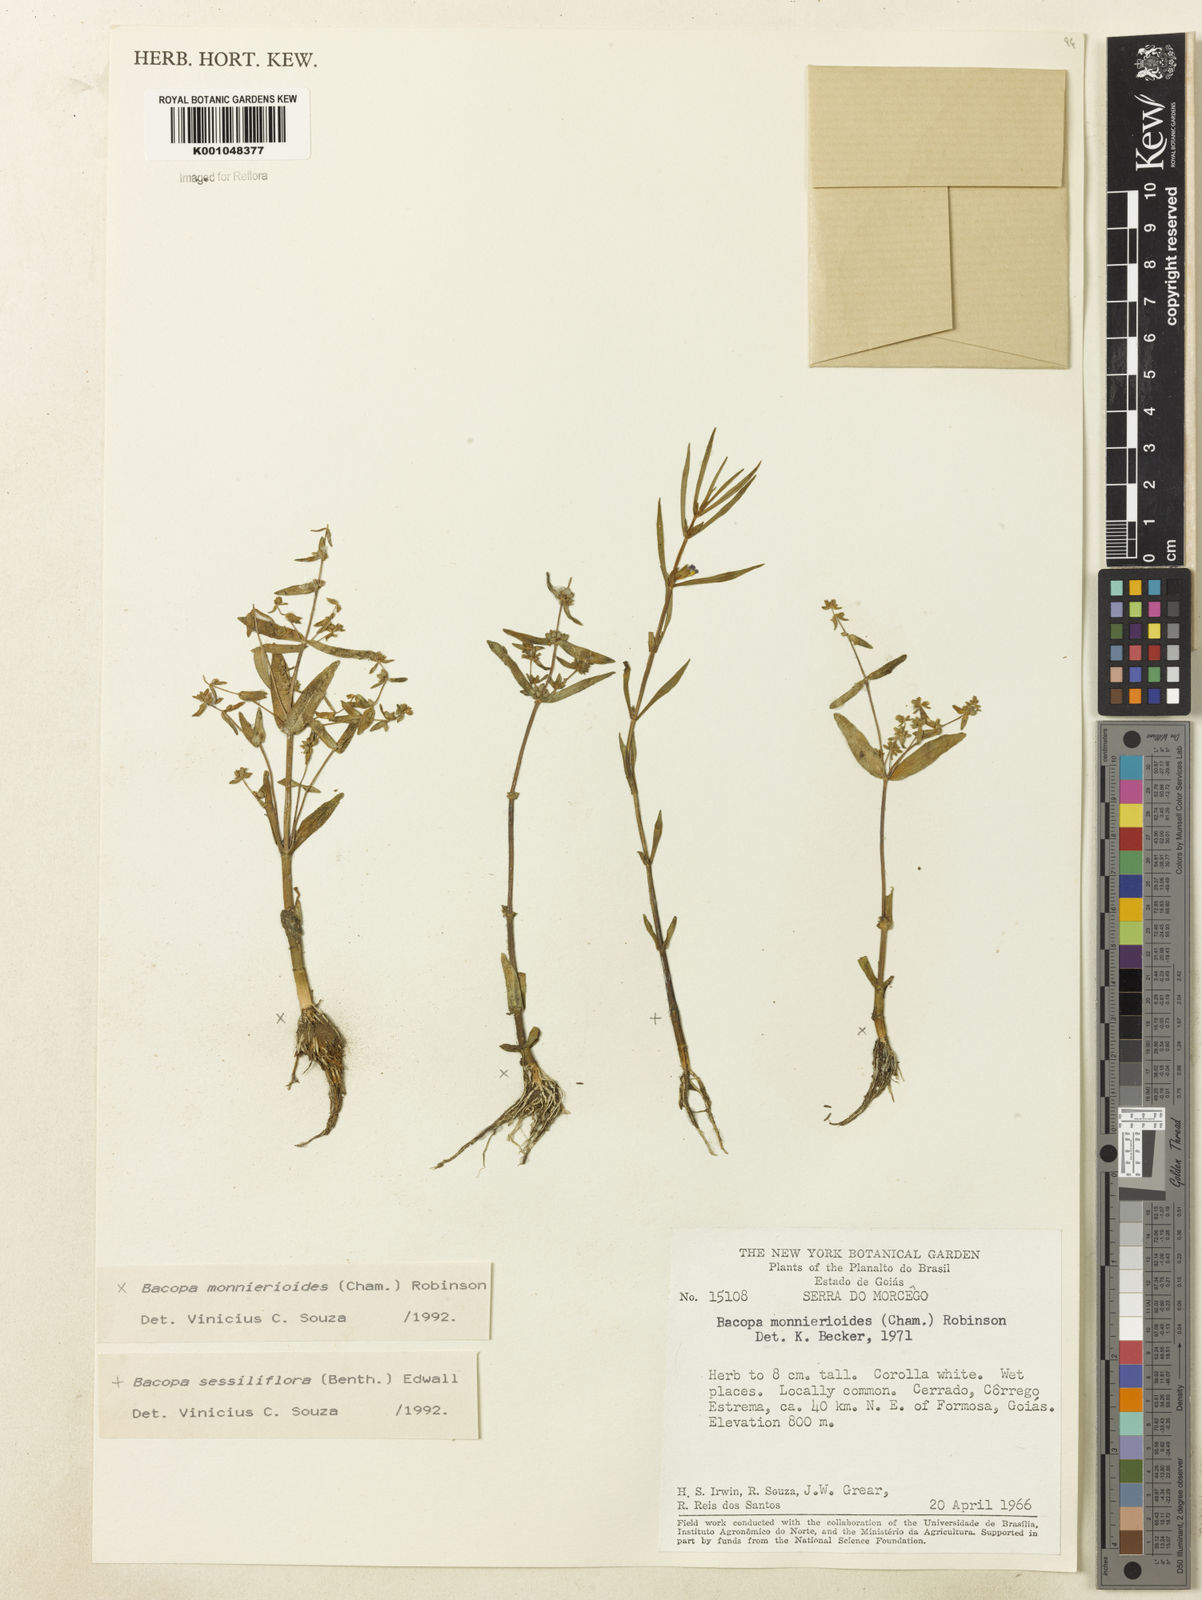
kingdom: Plantae
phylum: Tracheophyta
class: Magnoliopsida
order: Lamiales
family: Plantaginaceae
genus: Bacopa
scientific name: Bacopa monnierioides
